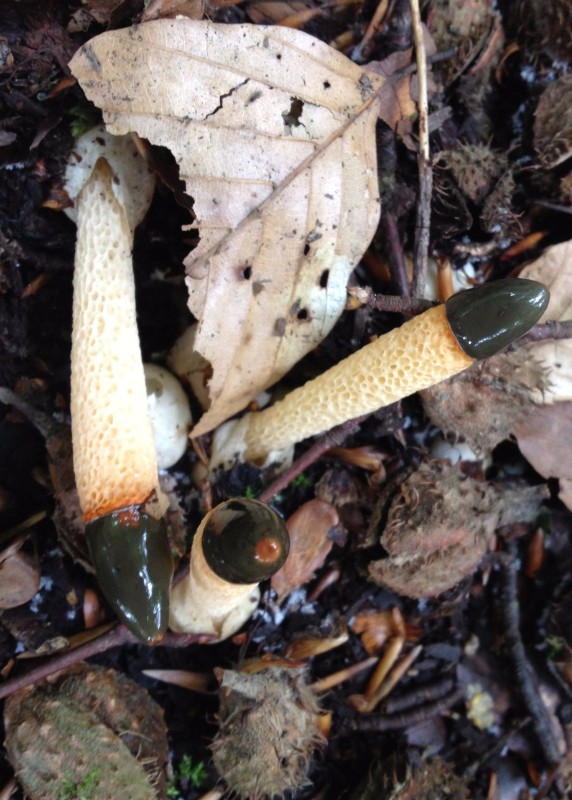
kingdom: Fungi
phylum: Basidiomycota
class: Agaricomycetes
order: Phallales
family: Phallaceae
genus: Mutinus
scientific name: Mutinus caninus
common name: hunde-stinksvamp
